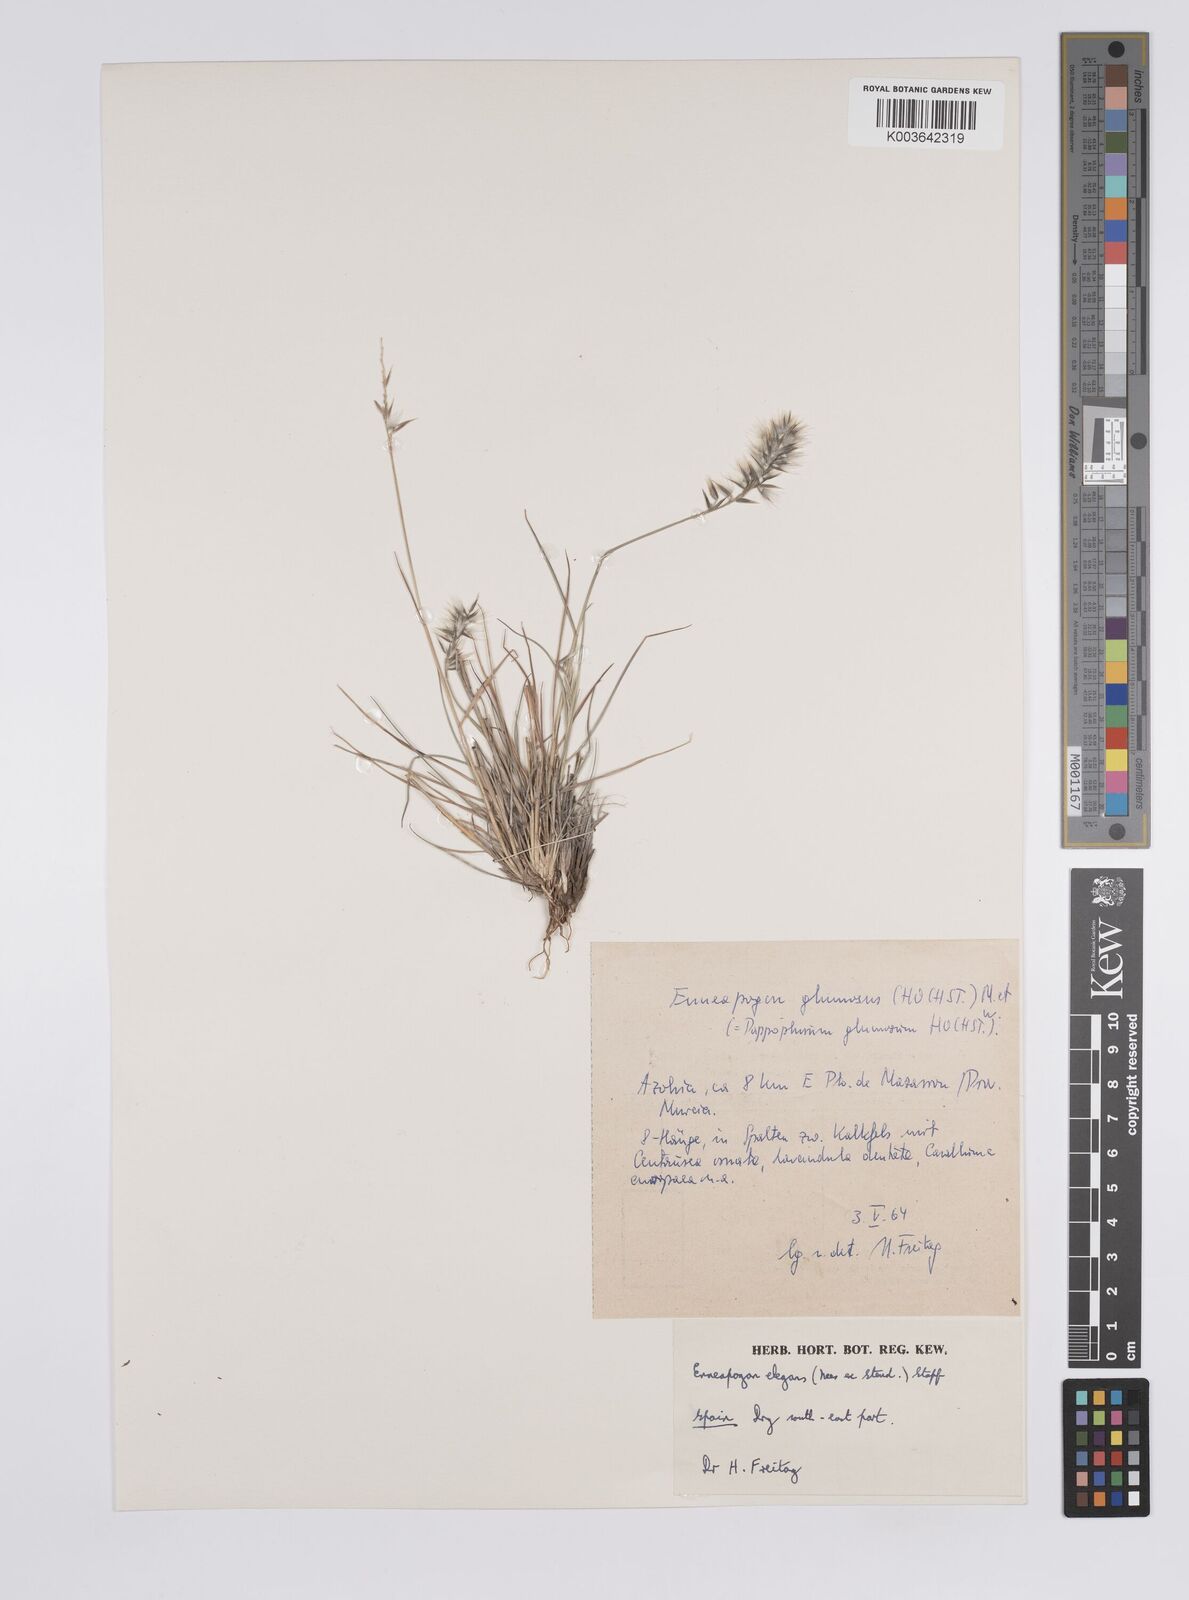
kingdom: Plantae
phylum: Tracheophyta
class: Liliopsida
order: Poales
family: Poaceae
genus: Enneapogon
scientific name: Enneapogon
